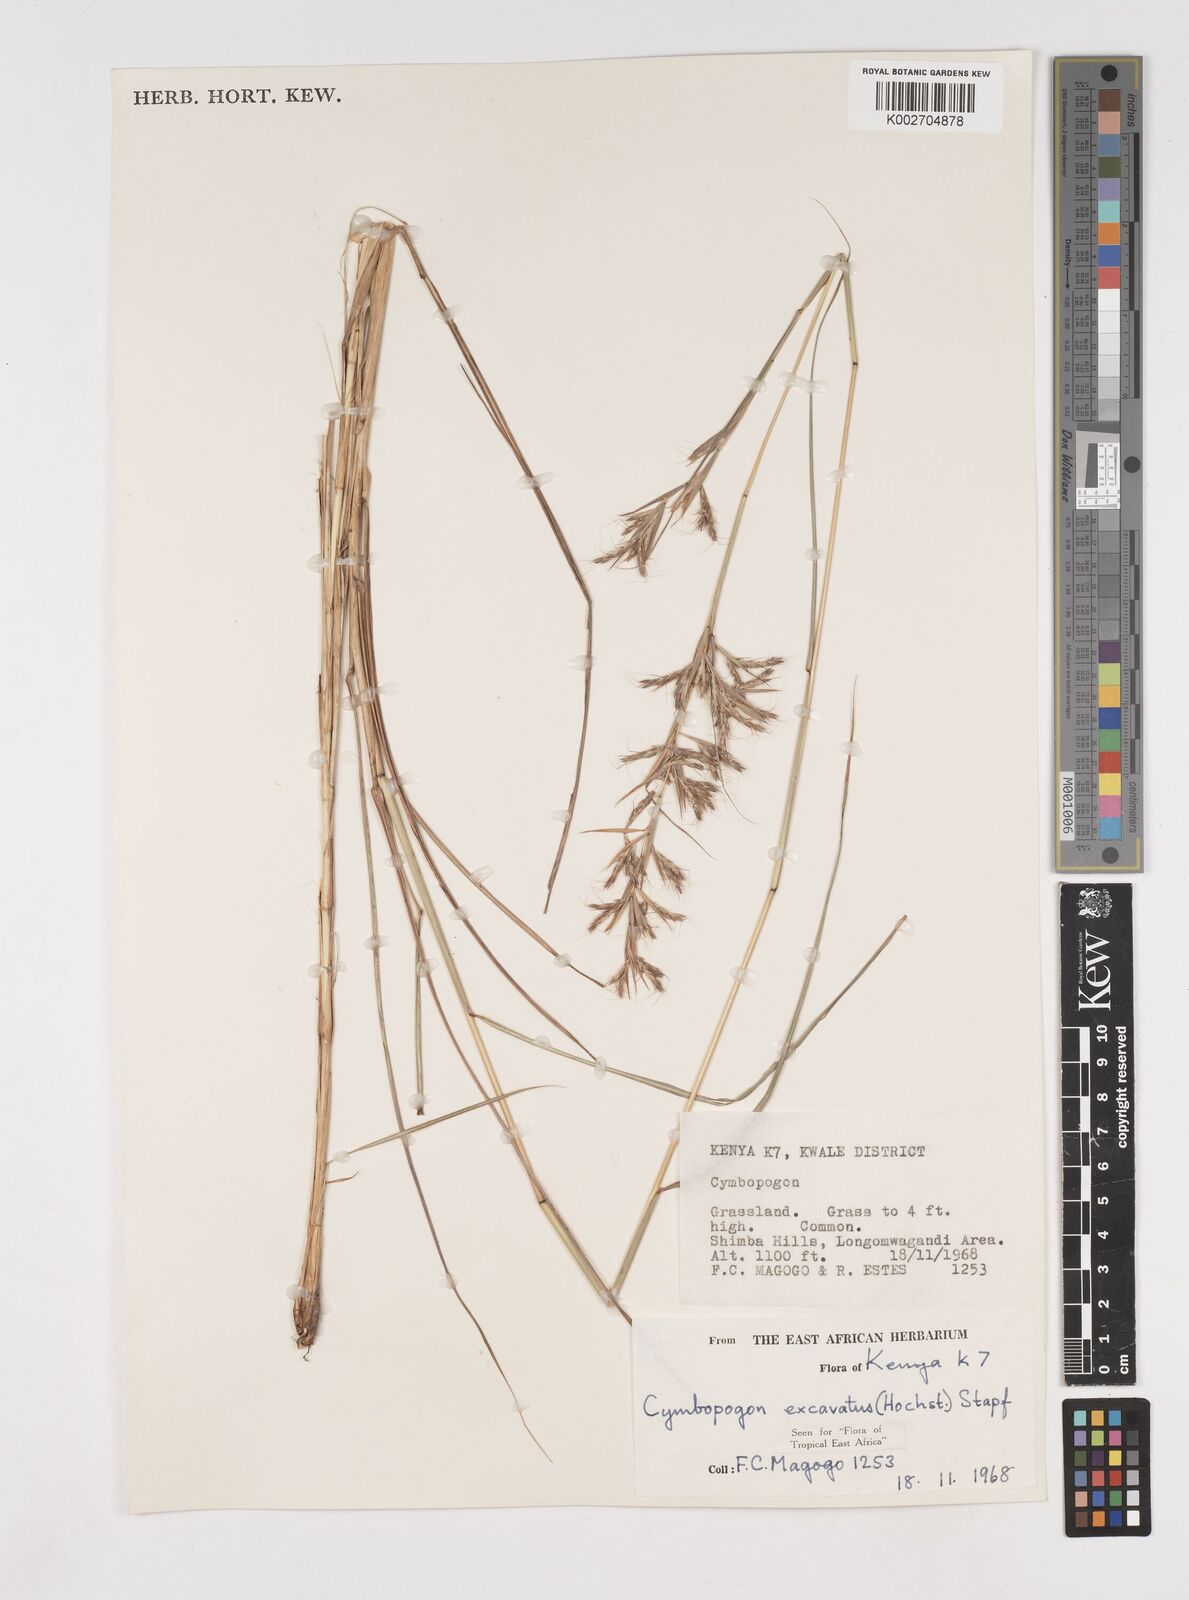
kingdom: Plantae
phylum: Tracheophyta
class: Liliopsida
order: Poales
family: Poaceae
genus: Cymbopogon
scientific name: Cymbopogon caesius
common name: Kachi grass
